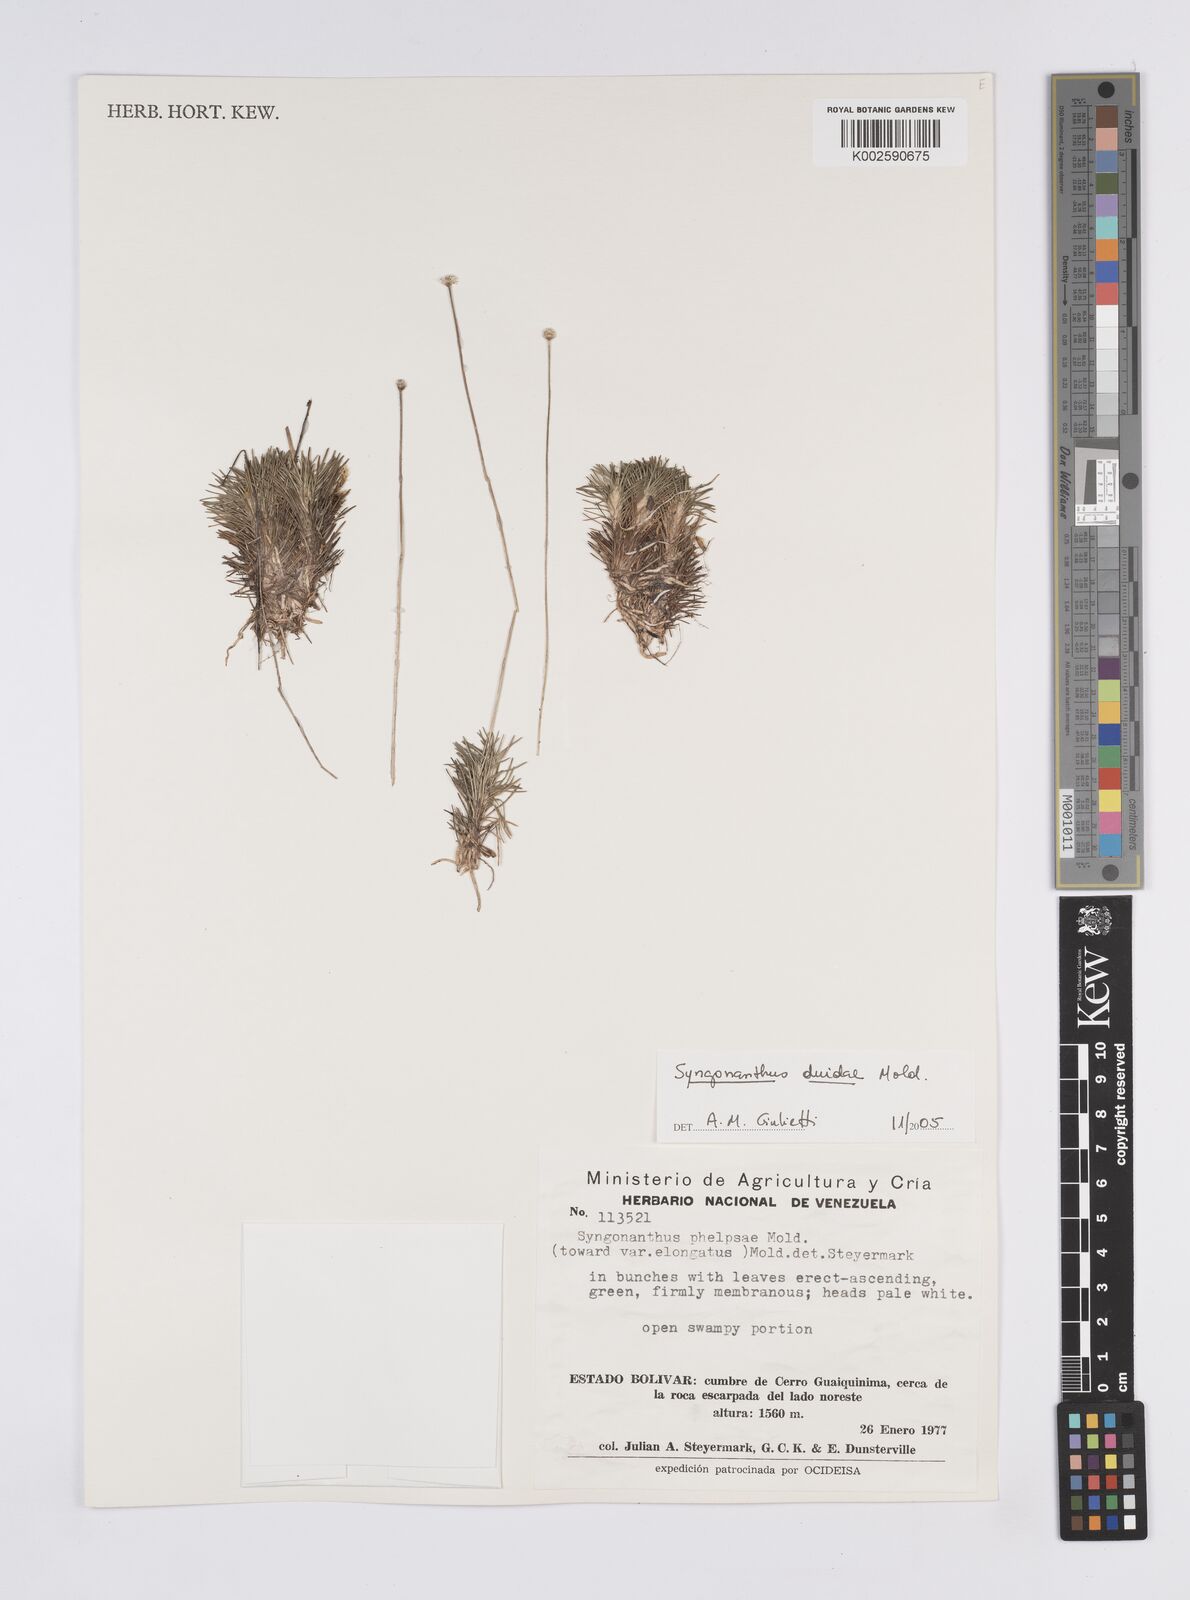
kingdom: Plantae
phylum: Tracheophyta
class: Liliopsida
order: Poales
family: Eriocaulaceae
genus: Syngonanthus
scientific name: Syngonanthus duidae
